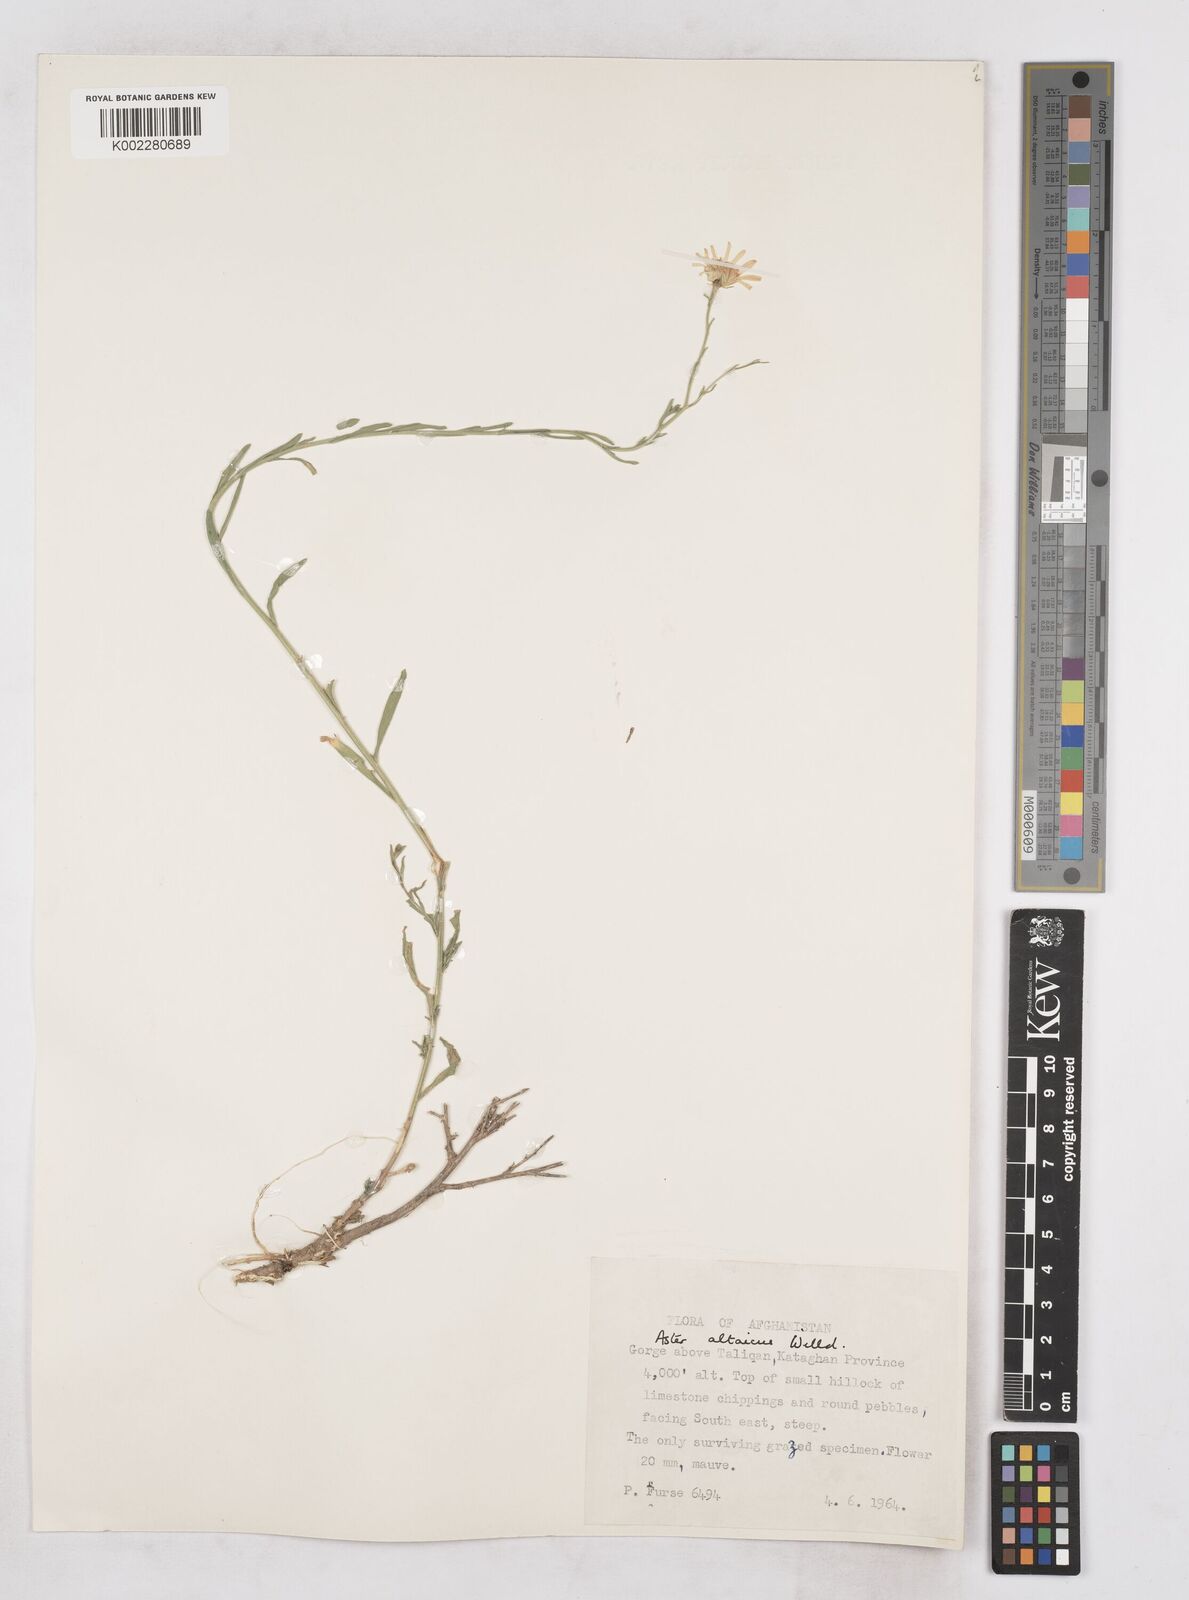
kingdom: Plantae
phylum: Tracheophyta
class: Magnoliopsida
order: Asterales
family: Asteraceae
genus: Heteropappus
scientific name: Heteropappus altaicus
